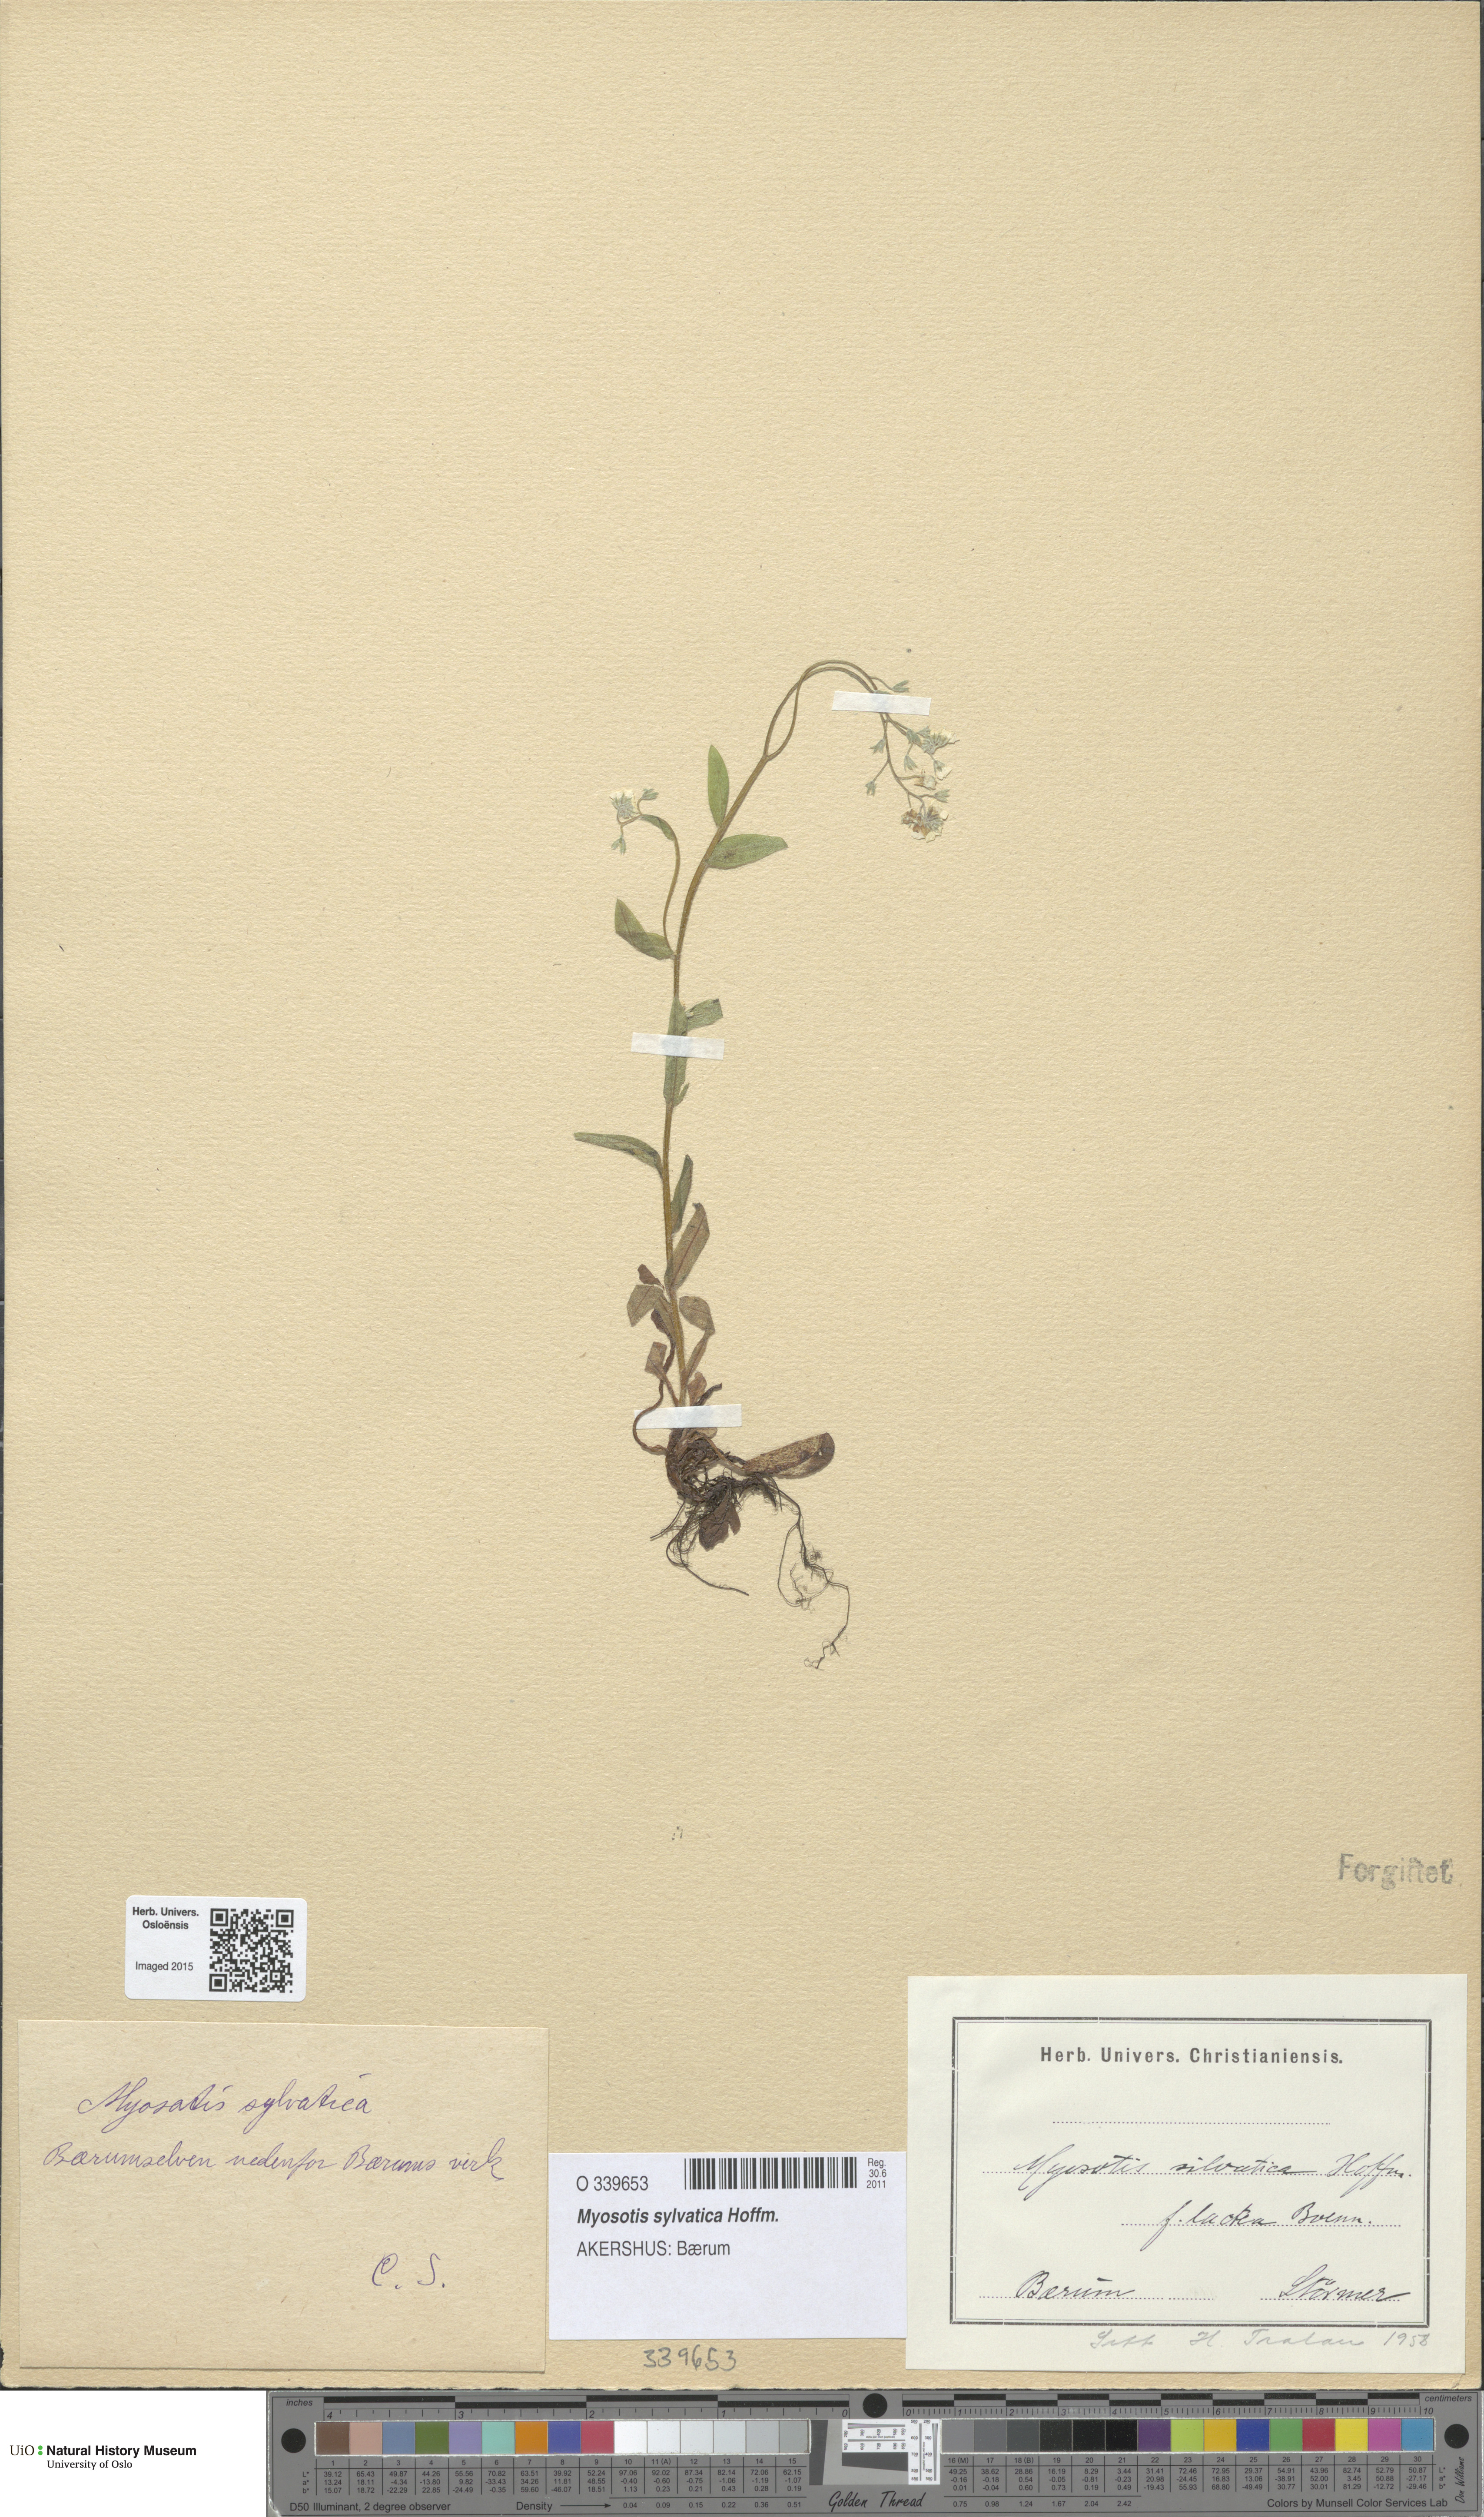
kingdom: Plantae
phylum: Tracheophyta
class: Magnoliopsida
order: Boraginales
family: Boraginaceae
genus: Myosotis
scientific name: Myosotis sylvatica
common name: Wood forget-me-not
